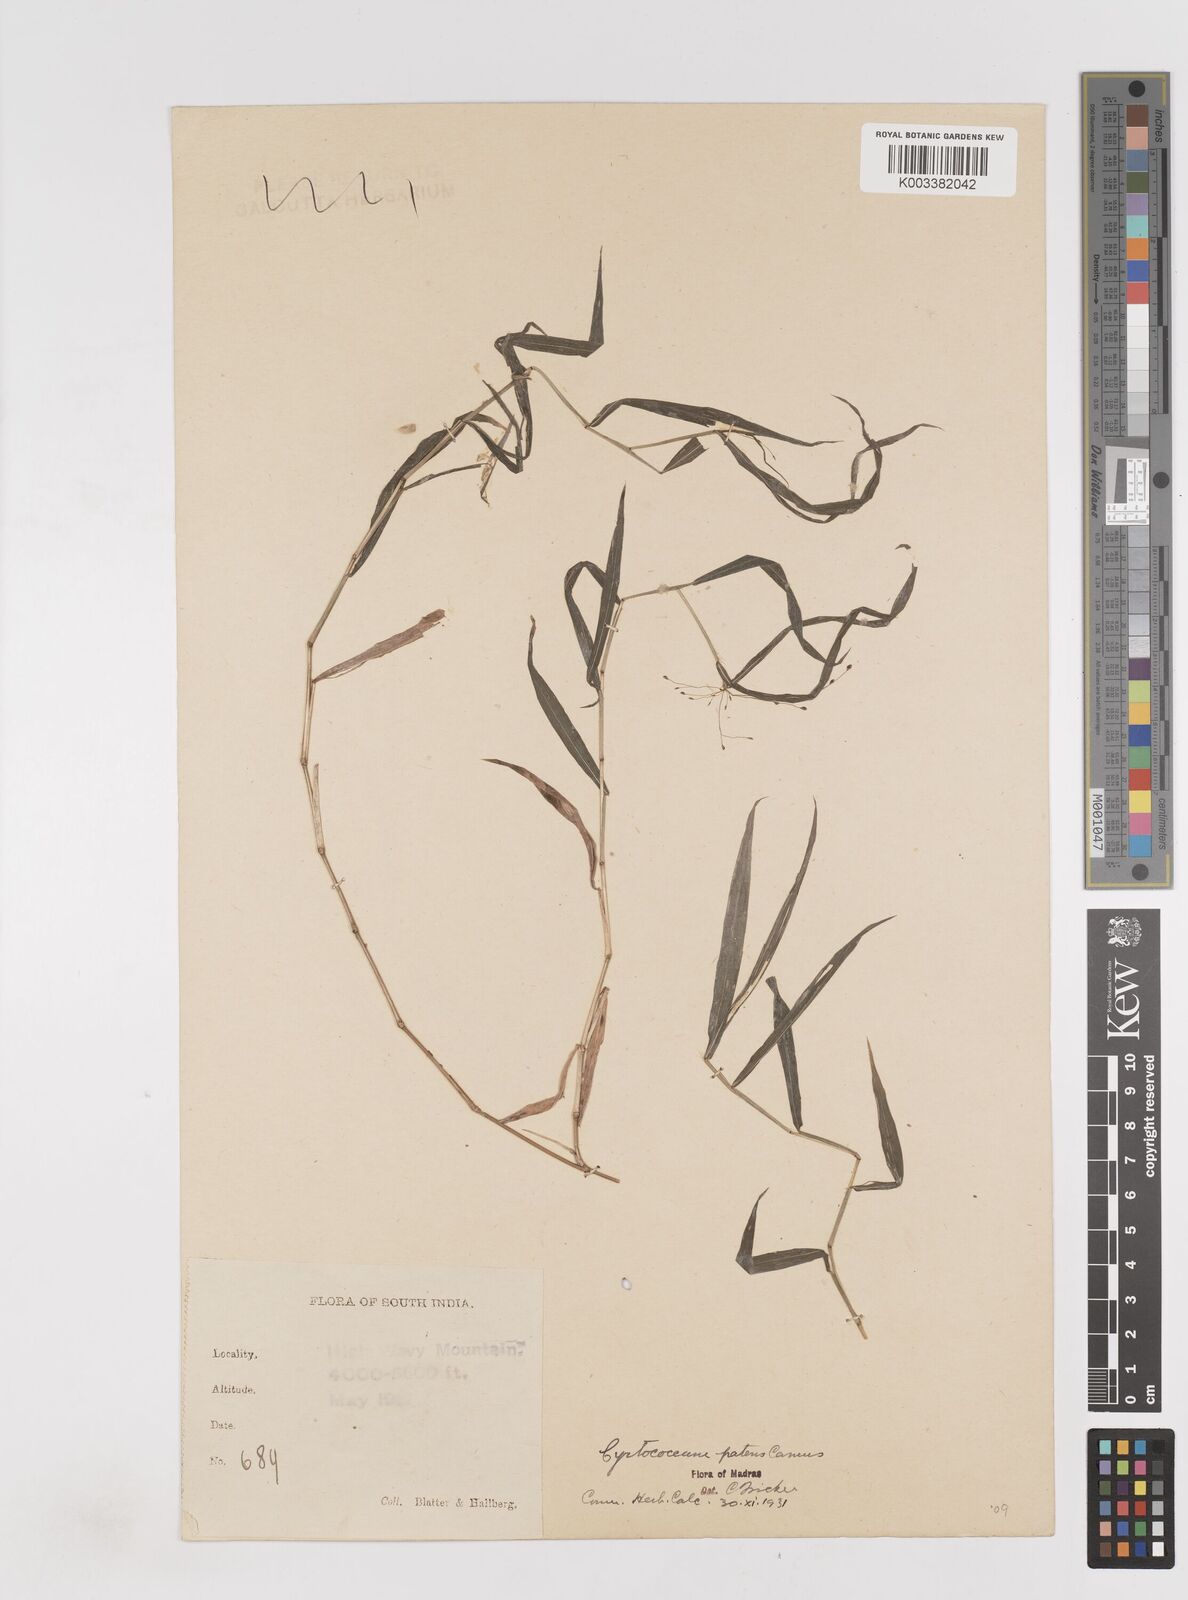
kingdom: Plantae
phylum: Tracheophyta
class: Liliopsida
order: Poales
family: Poaceae
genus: Cyrtococcum
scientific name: Cyrtococcum deccanense
